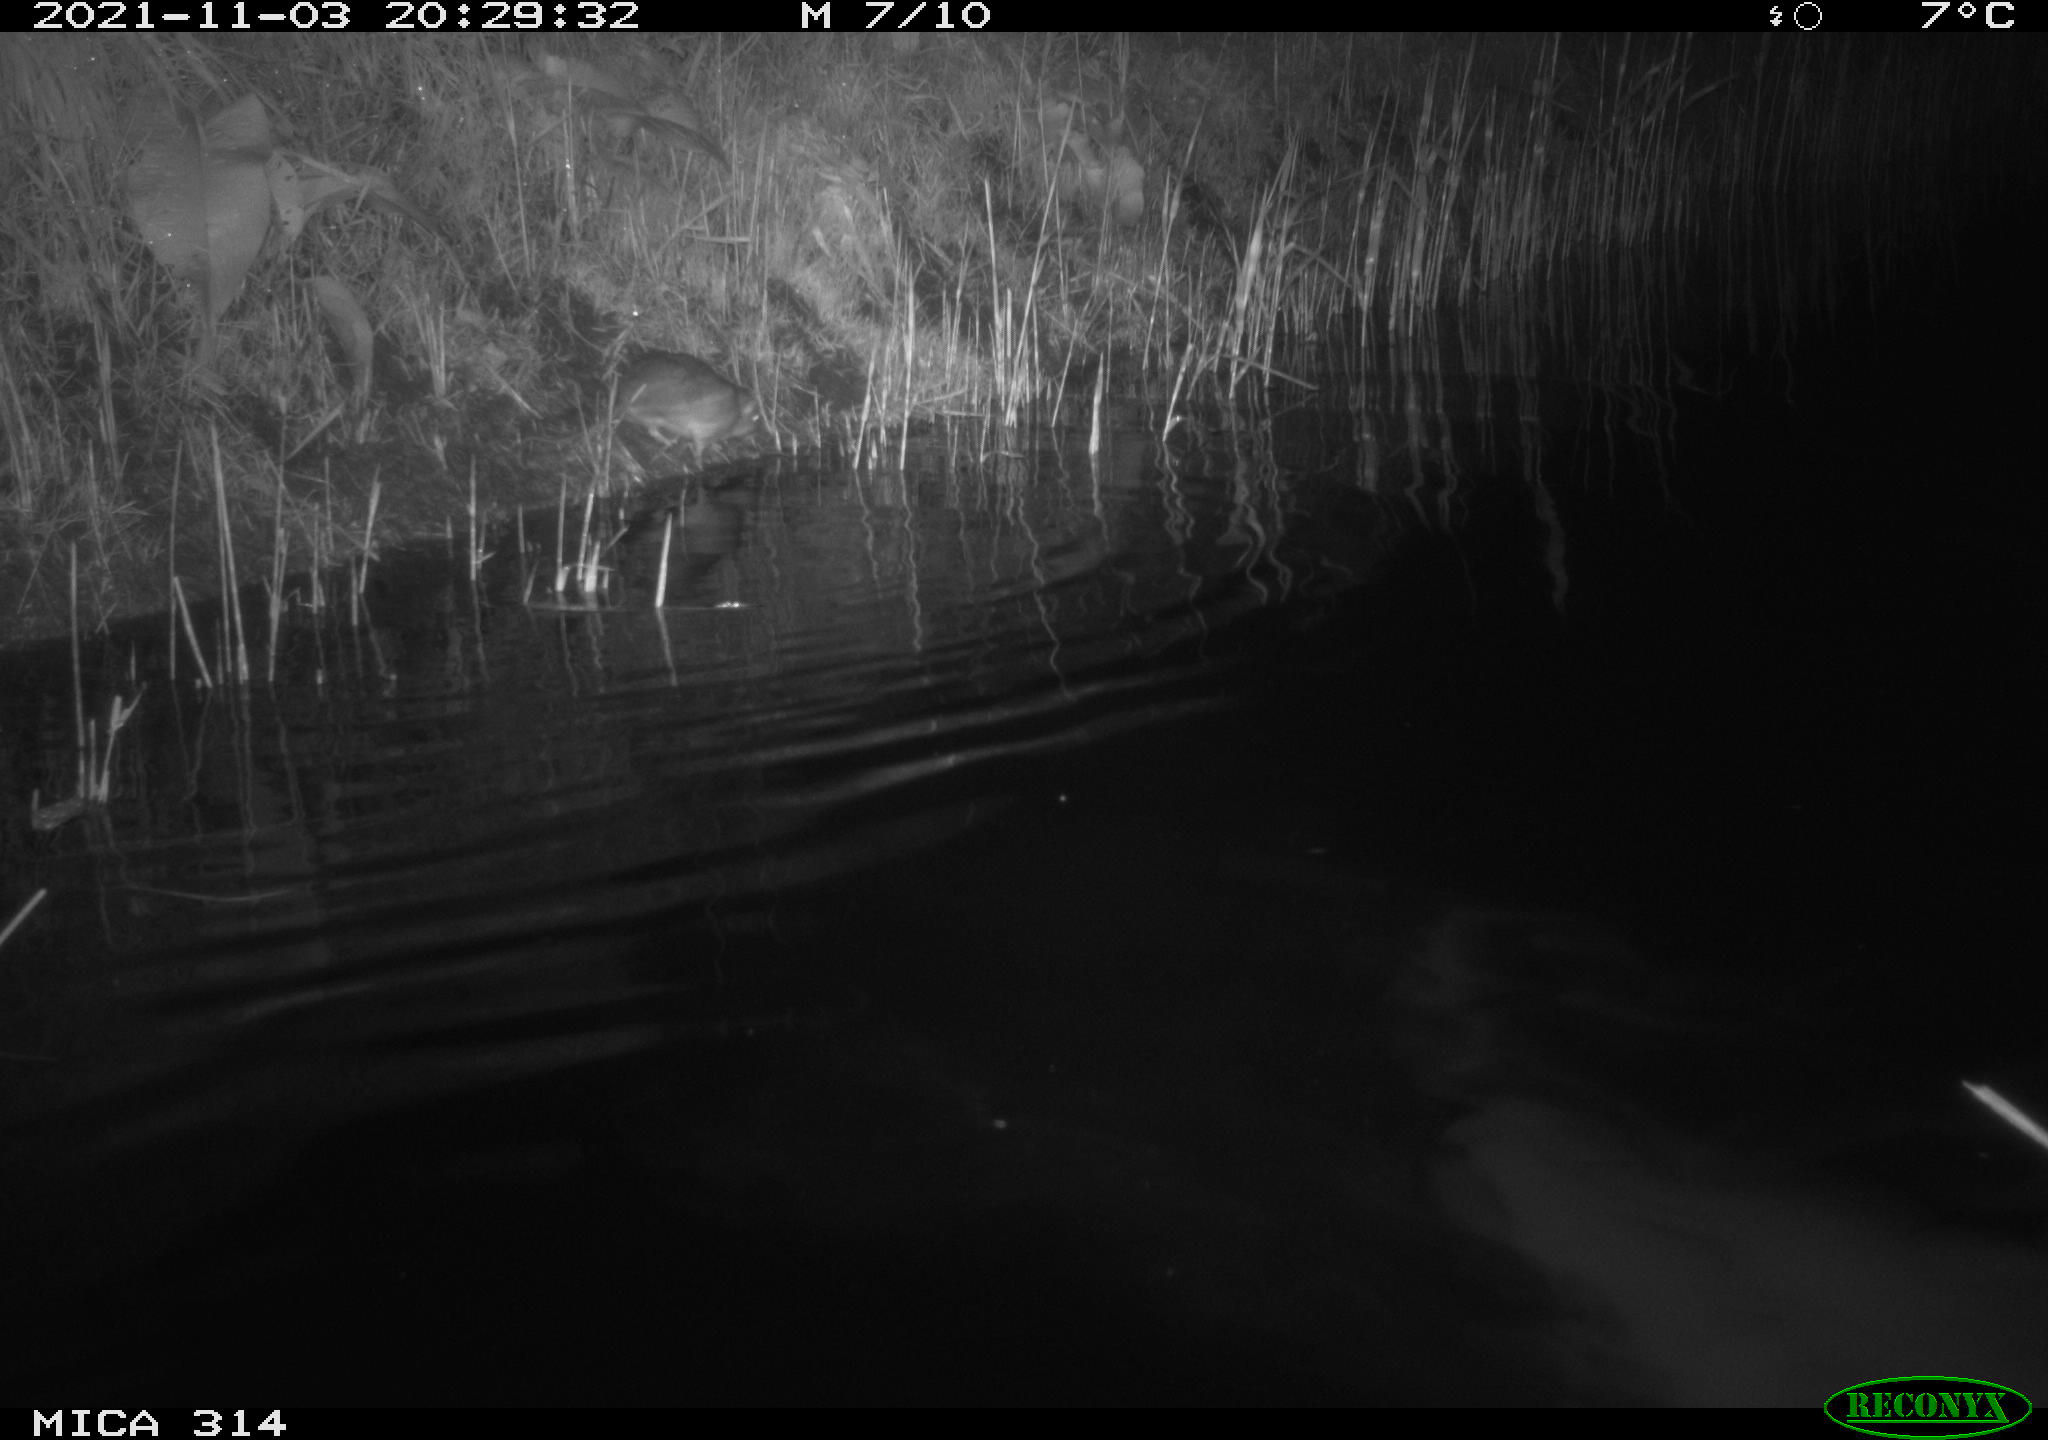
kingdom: Animalia
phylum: Chordata
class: Mammalia
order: Rodentia
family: Muridae
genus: Rattus
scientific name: Rattus norvegicus
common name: Brown rat
